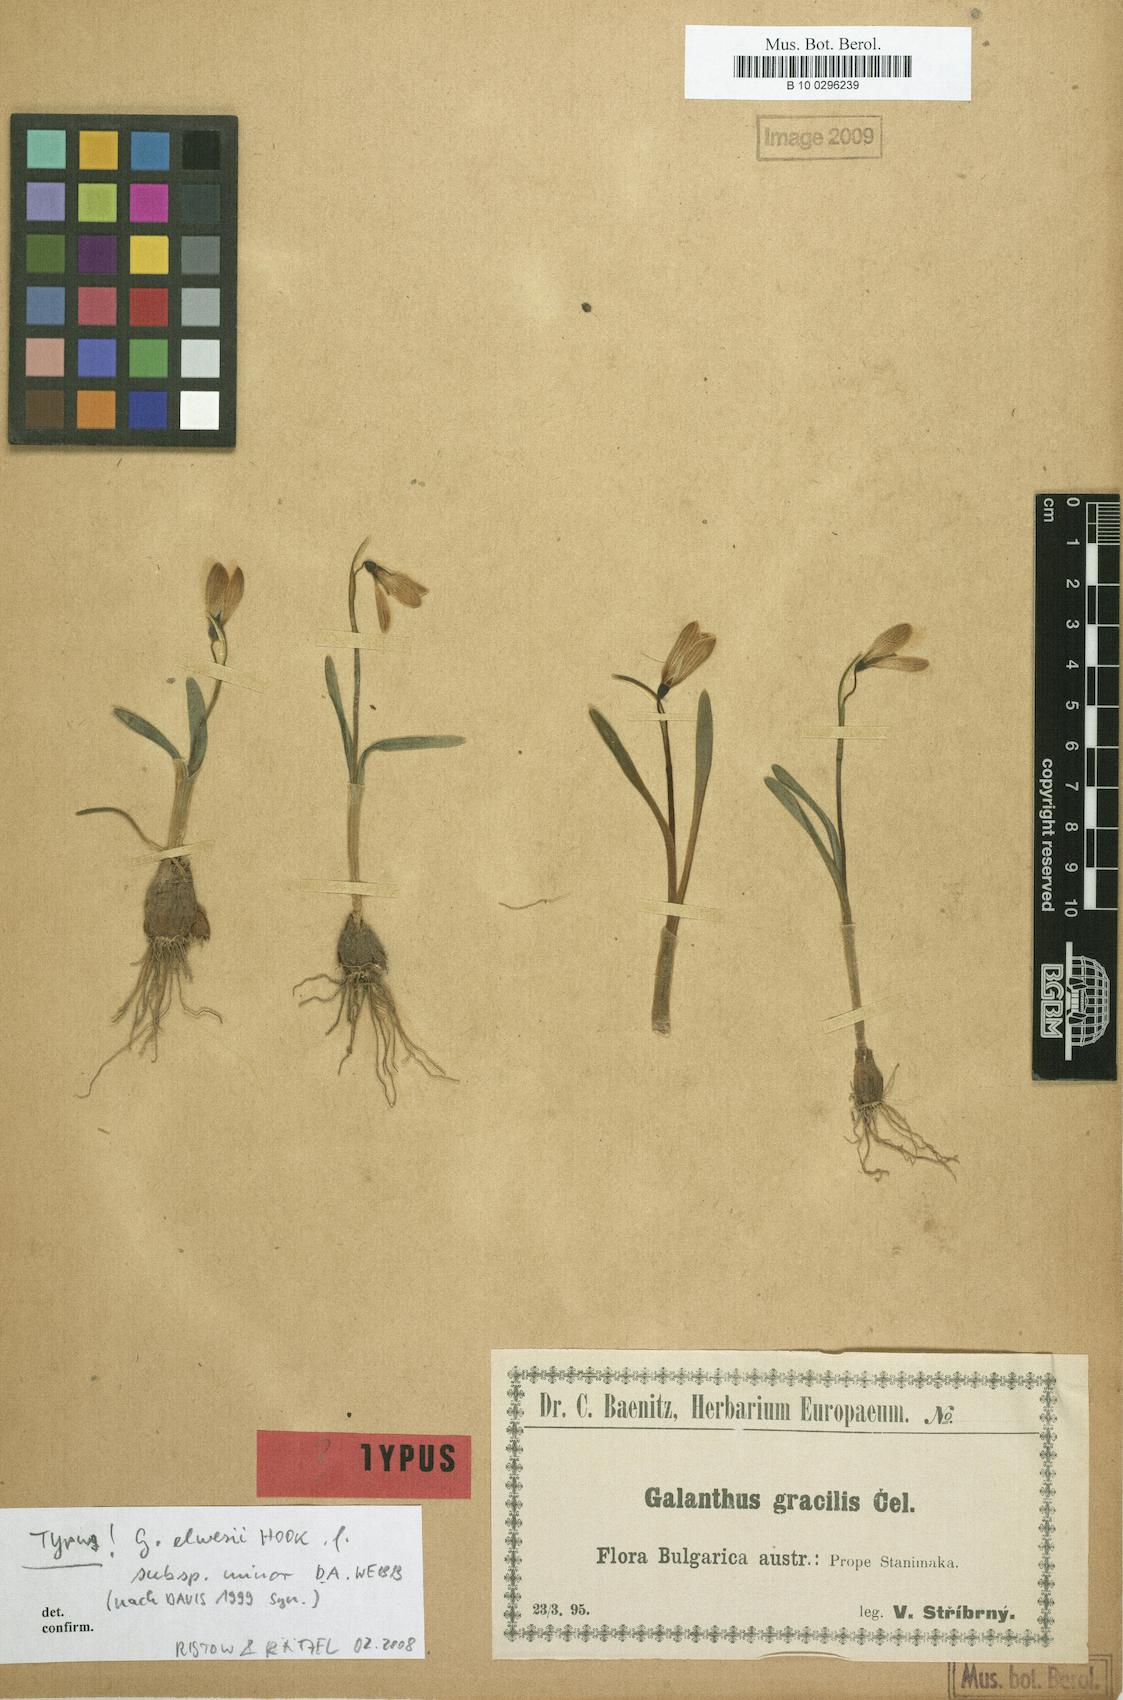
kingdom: Plantae
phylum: Tracheophyta
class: Liliopsida
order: Asparagales
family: Amaryllidaceae
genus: Galanthus
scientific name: Galanthus gracilis
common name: Snowdrop
